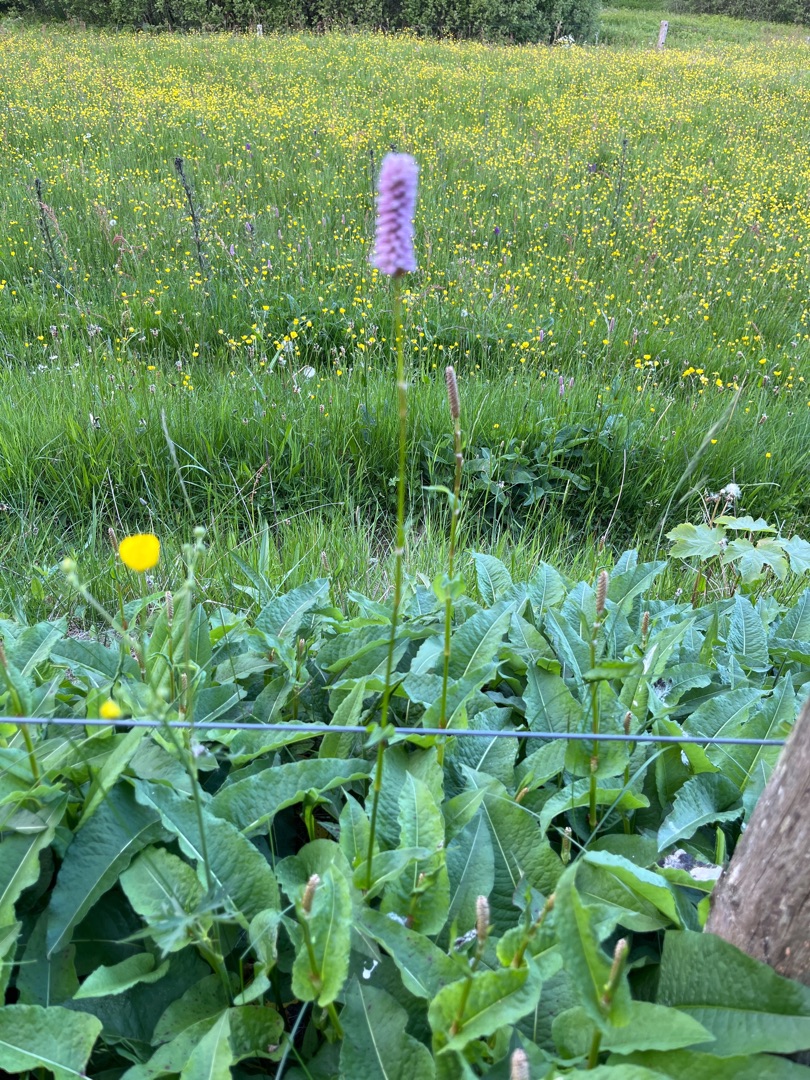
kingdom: Plantae
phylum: Tracheophyta
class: Magnoliopsida
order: Caryophyllales
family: Polygonaceae
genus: Bistorta
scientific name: Bistorta officinalis
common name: Slangeurt
